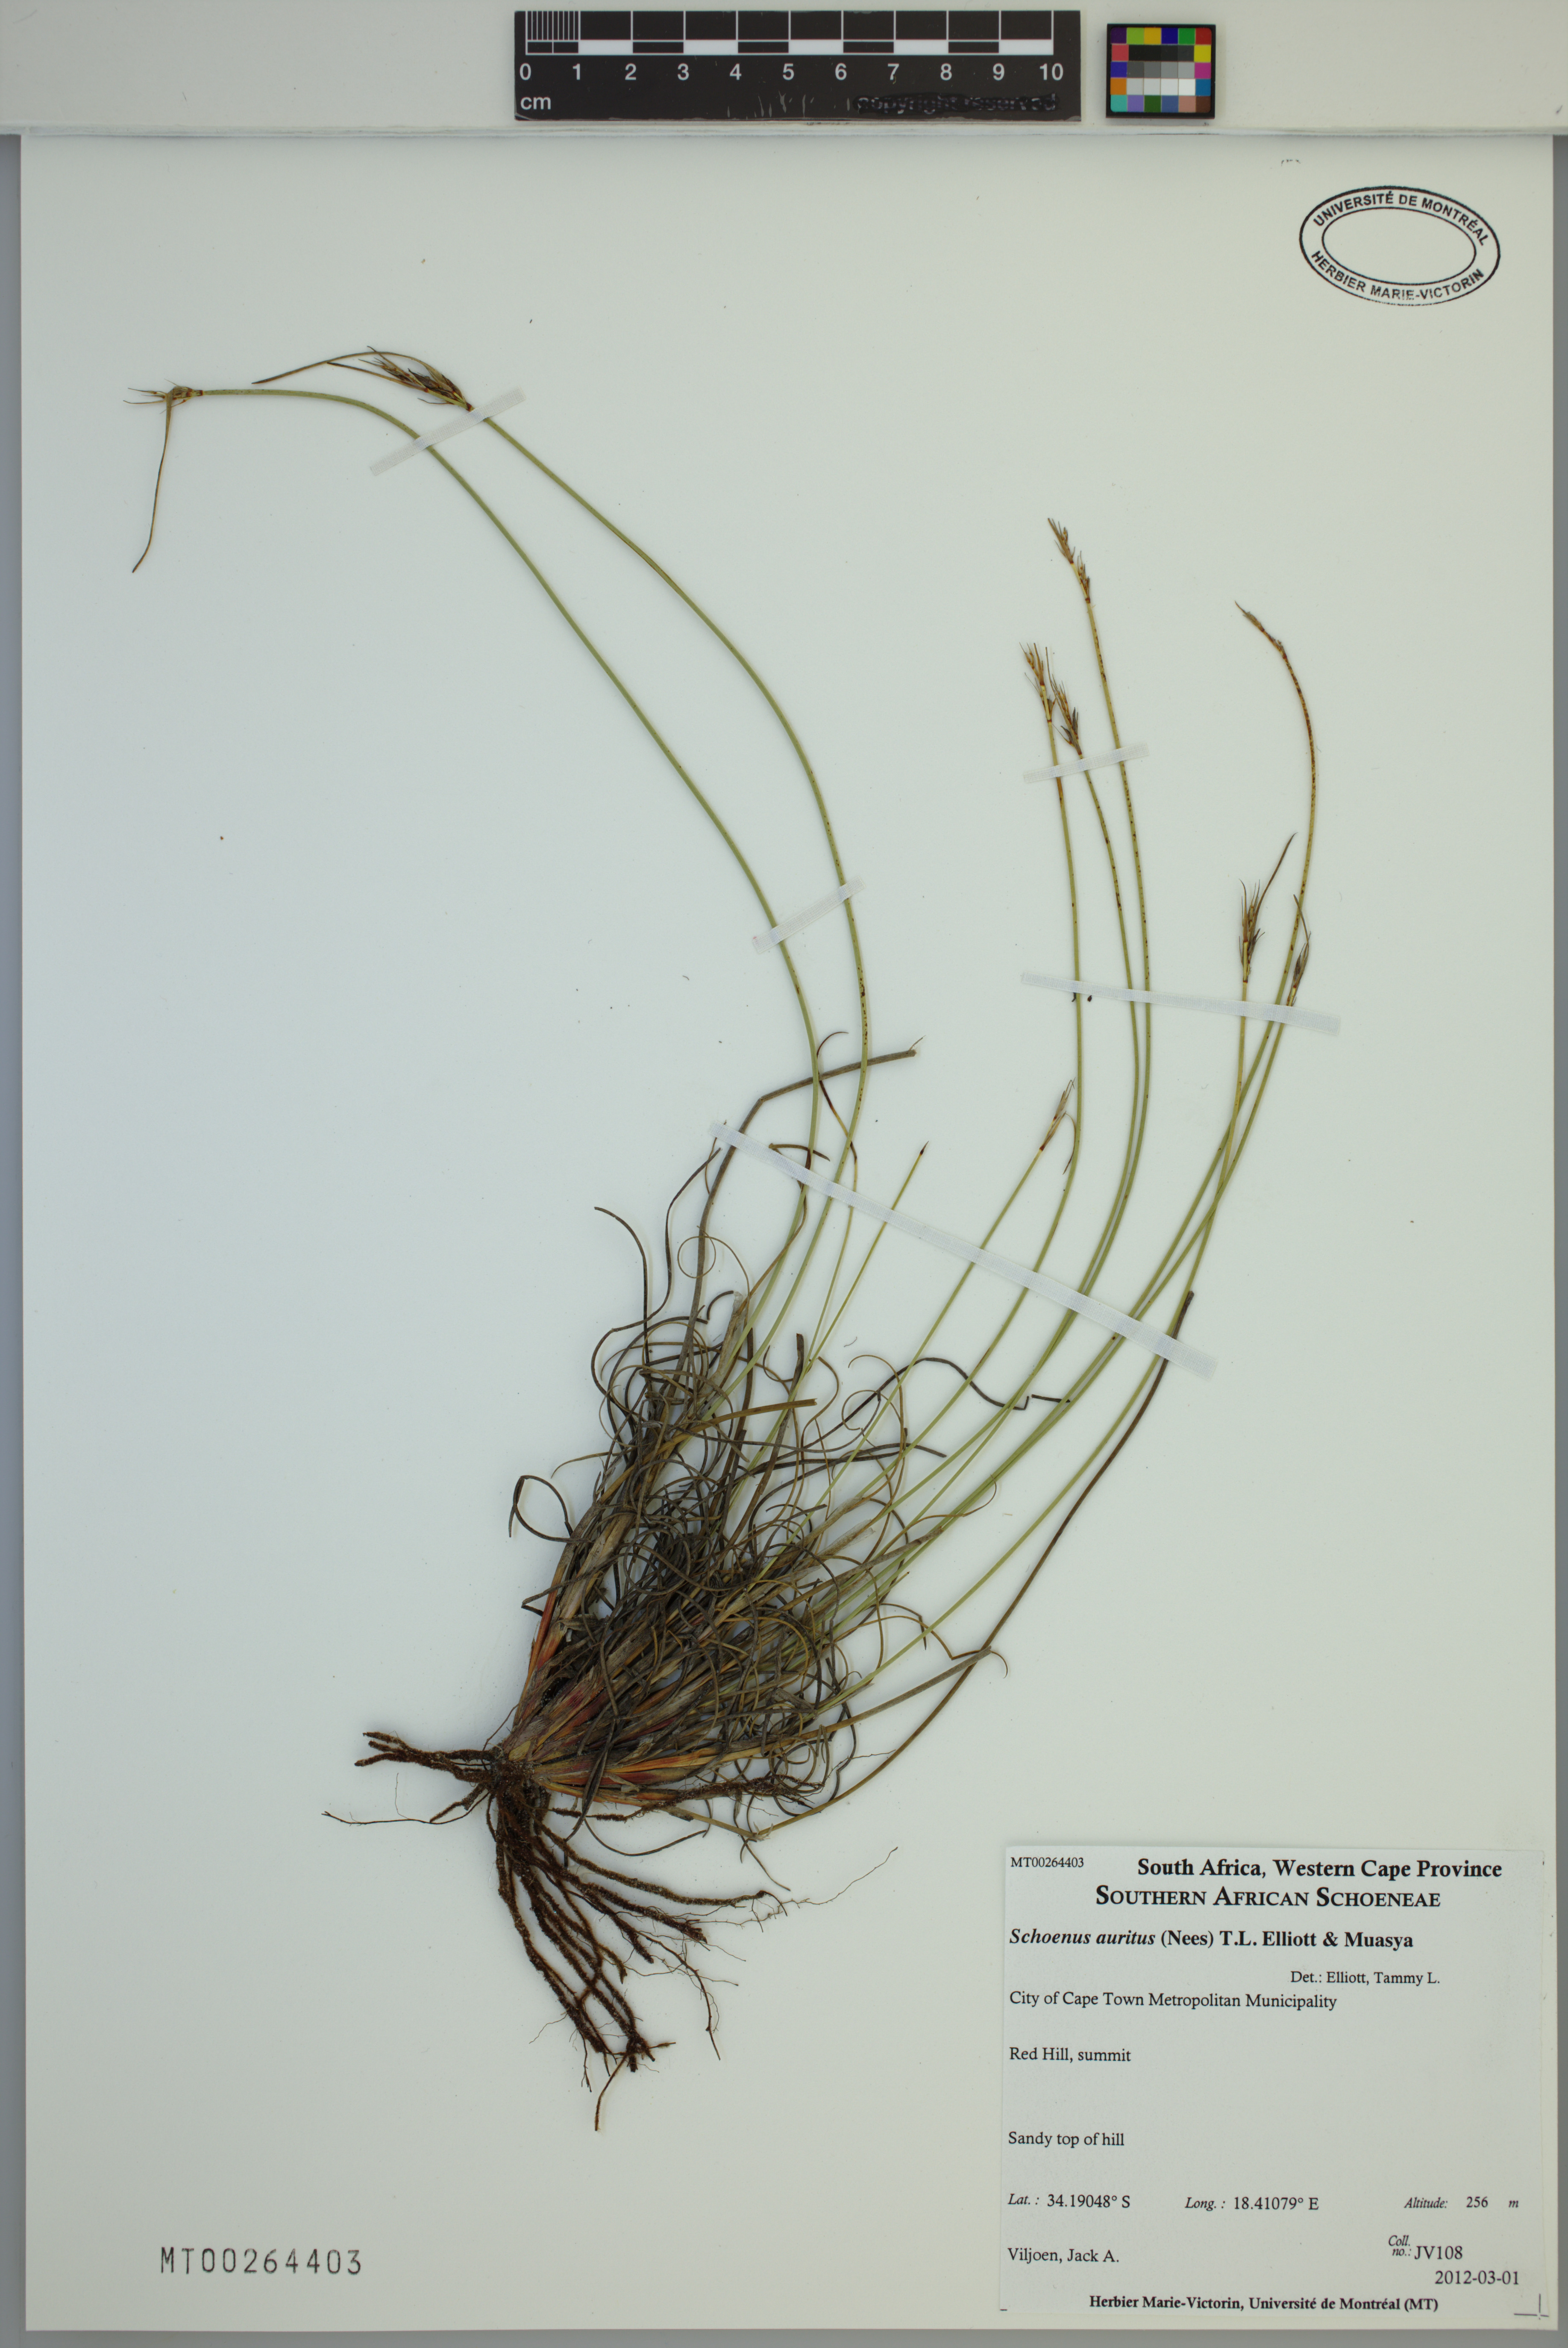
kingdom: Plantae
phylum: Tracheophyta
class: Liliopsida
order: Poales
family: Cyperaceae
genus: Schoenus
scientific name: Schoenus auritus
